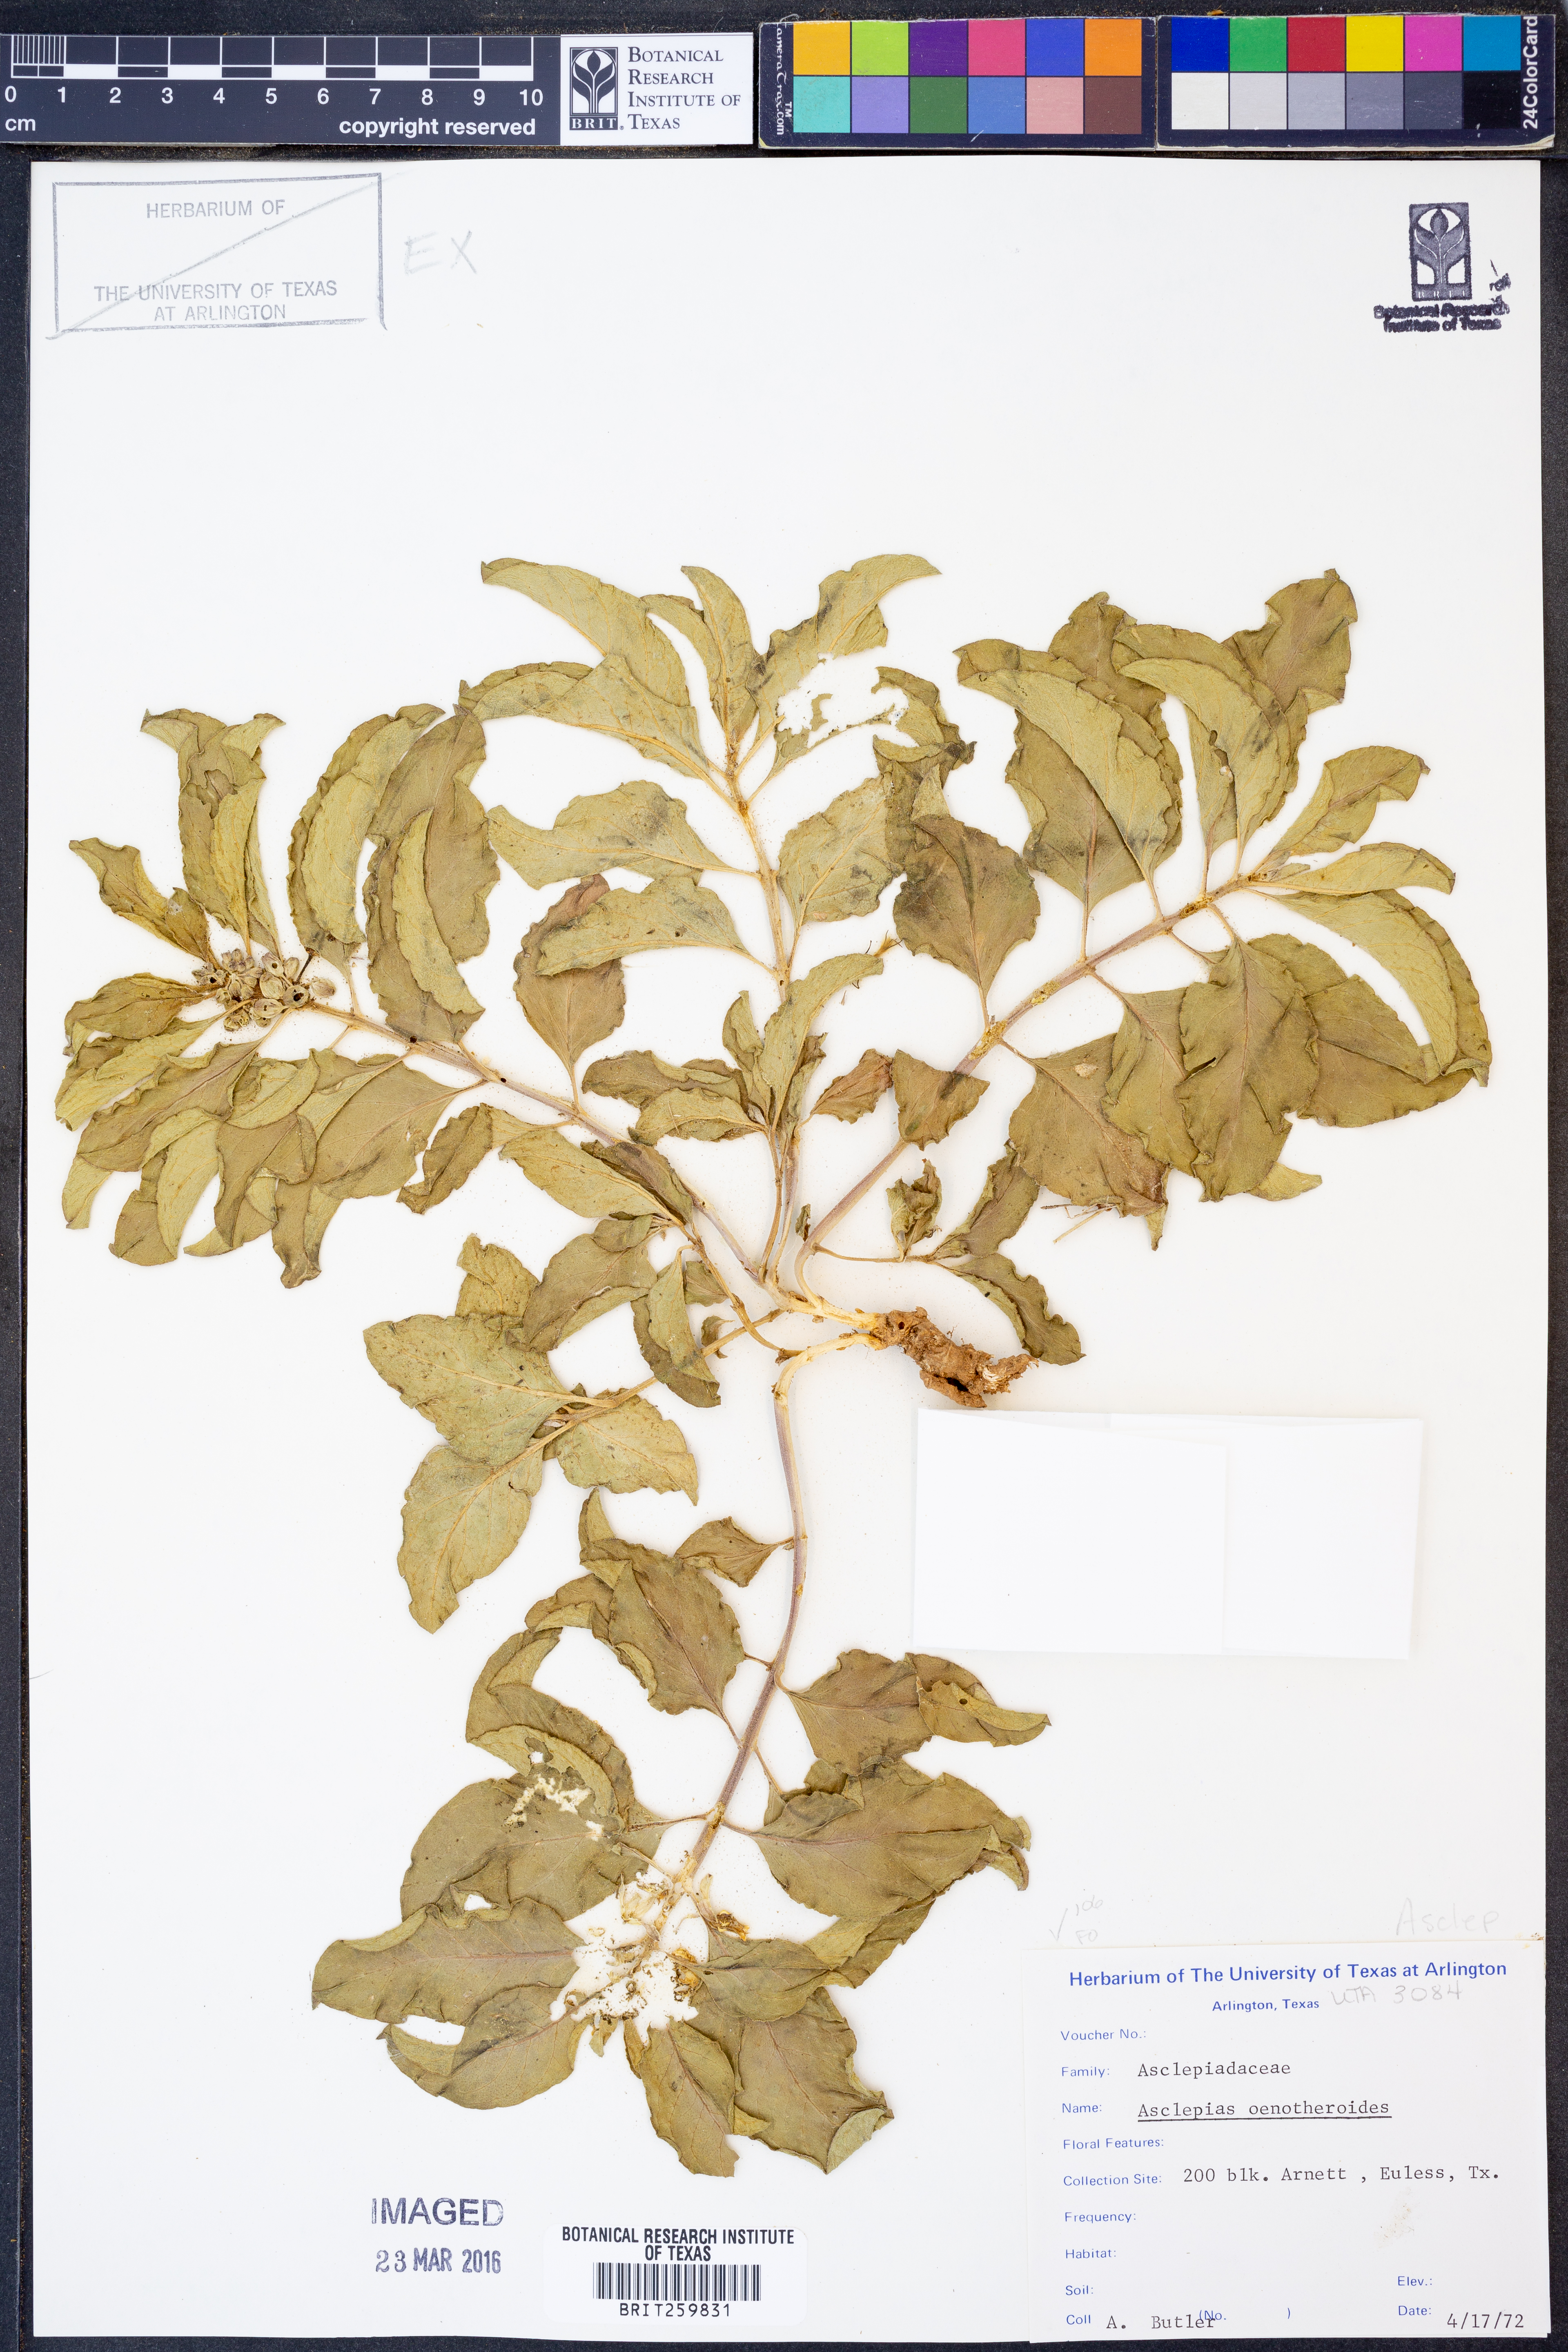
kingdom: Plantae
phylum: Tracheophyta
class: Magnoliopsida
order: Gentianales
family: Apocynaceae
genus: Asclepias
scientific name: Asclepias oenotheroides
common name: Zizotes milkweed
